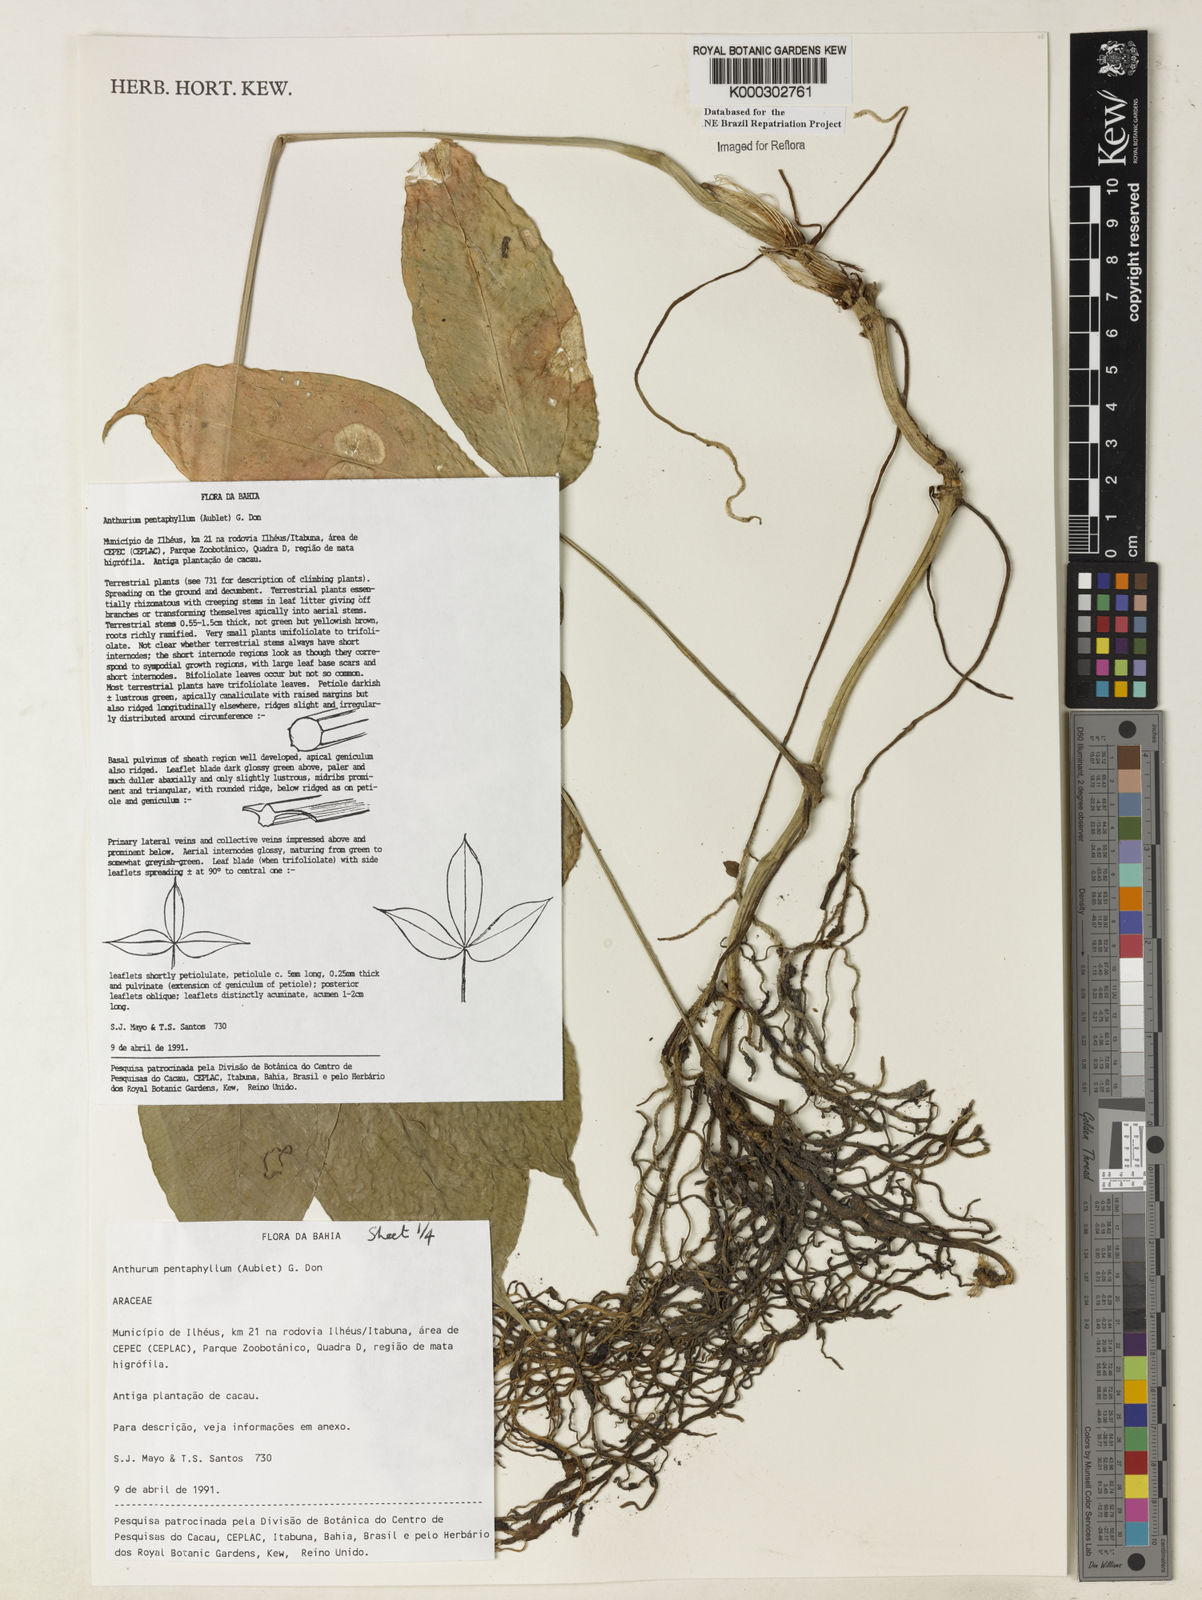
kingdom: Plantae
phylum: Tracheophyta
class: Liliopsida
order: Alismatales
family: Araceae
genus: Anthurium
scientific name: Anthurium pentaphyllum
